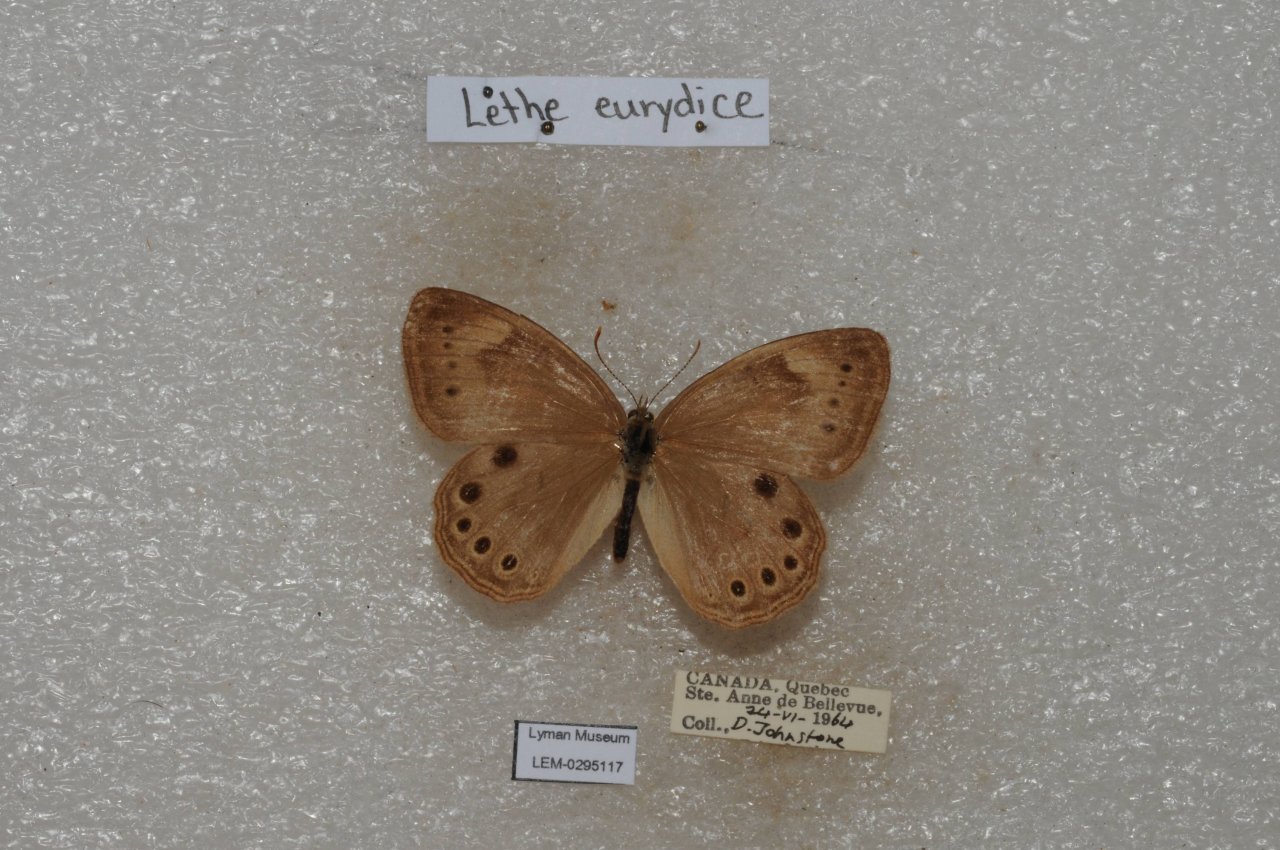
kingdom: Animalia
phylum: Arthropoda
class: Insecta
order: Lepidoptera
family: Nymphalidae
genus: Lethe
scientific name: Lethe eurydice
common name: Eyed Brown
